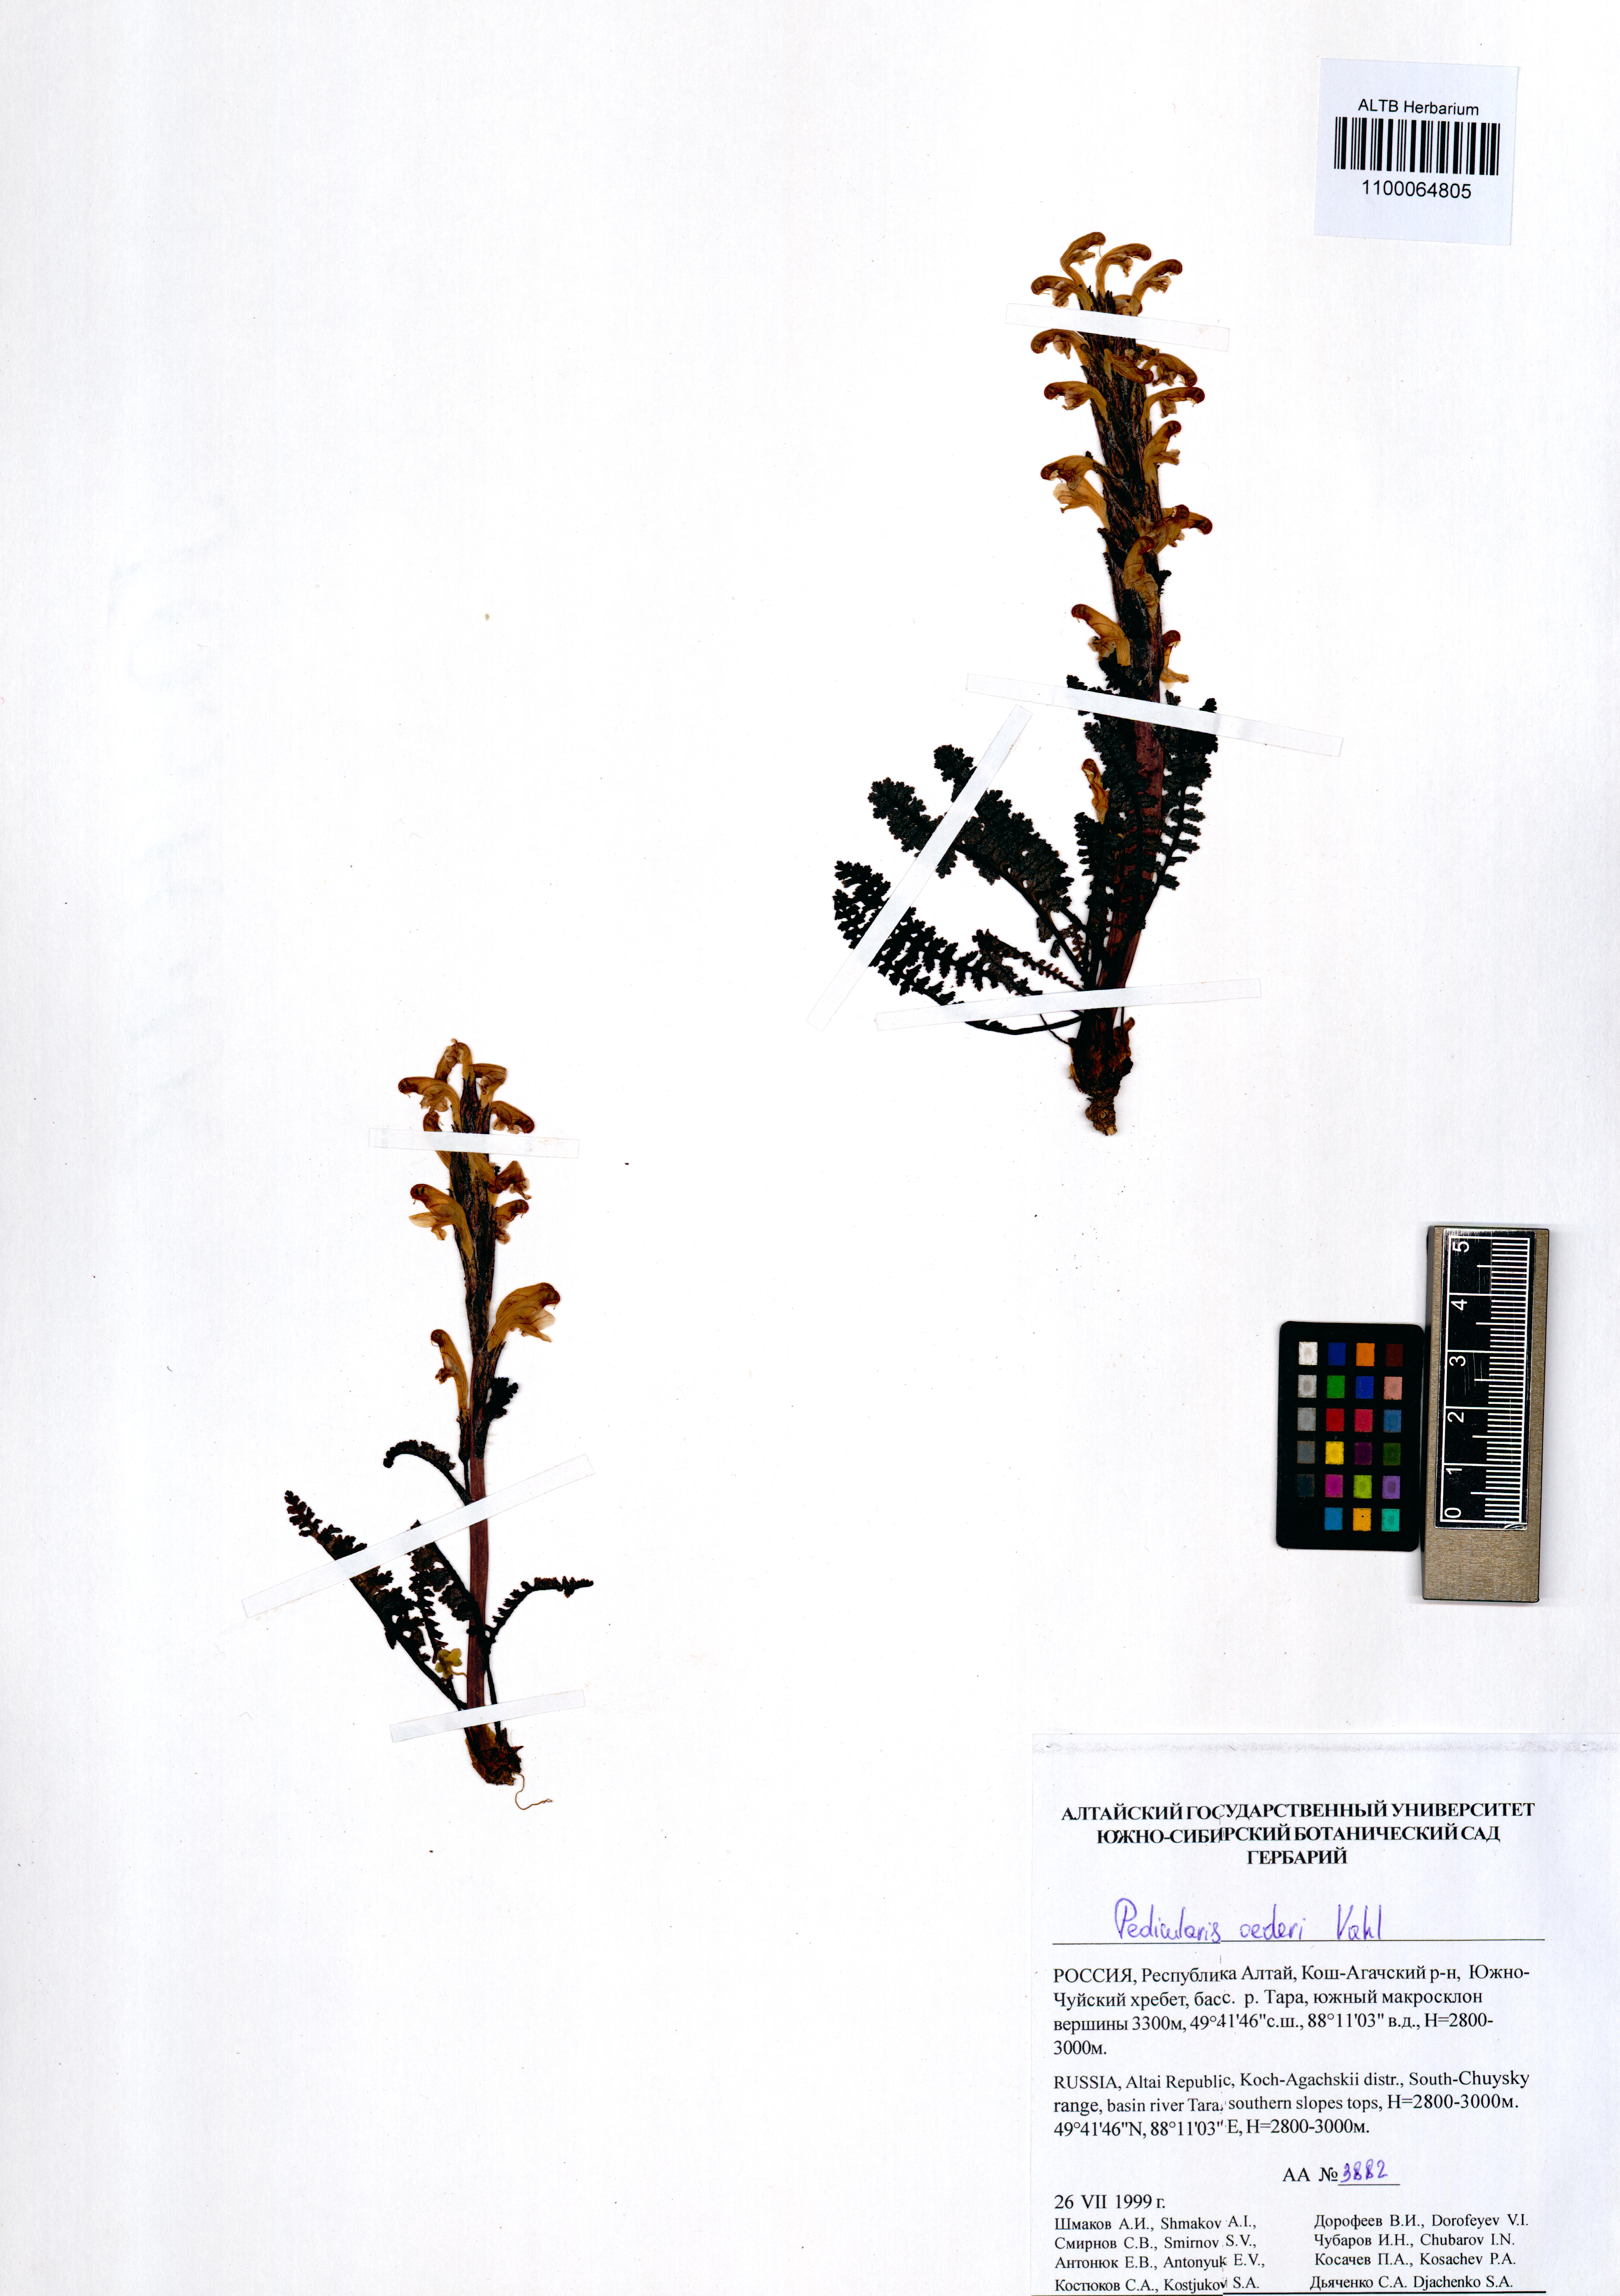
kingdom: Plantae
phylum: Tracheophyta
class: Magnoliopsida
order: Lamiales
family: Orobanchaceae
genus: Pedicularis
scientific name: Pedicularis oederi
